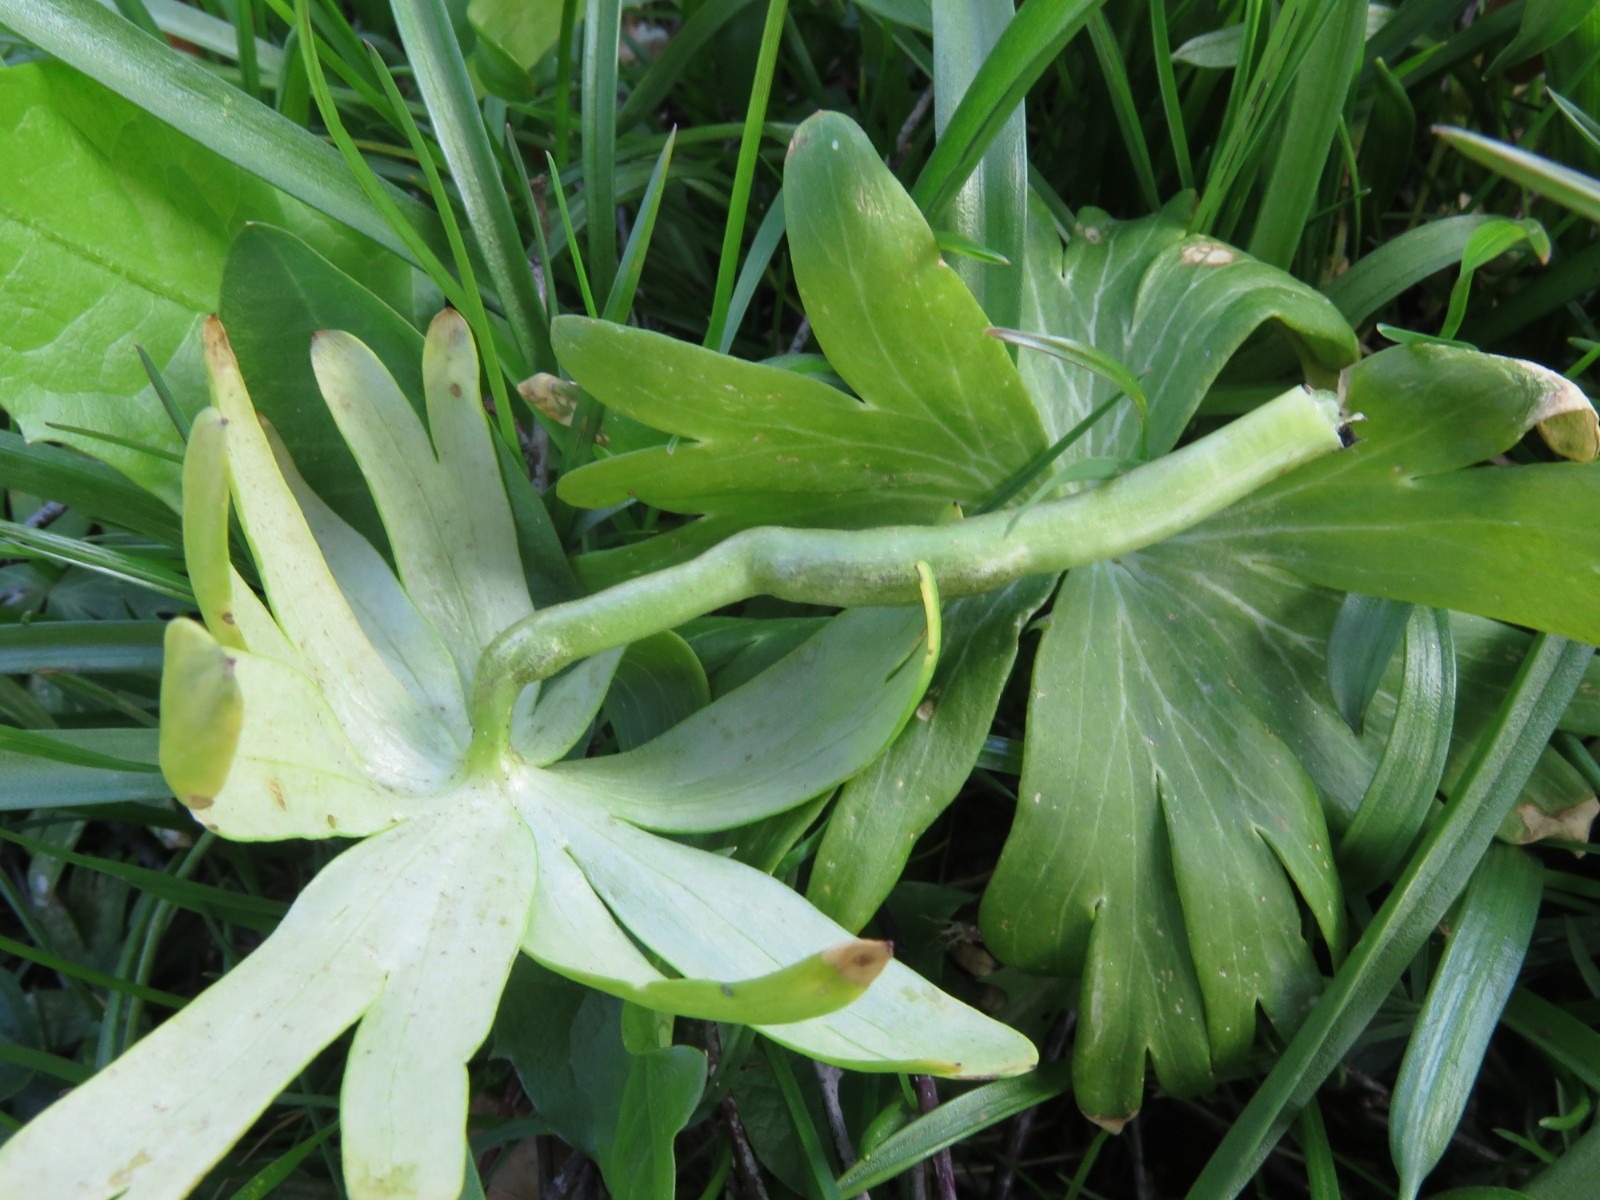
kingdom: Fungi
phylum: Basidiomycota
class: Ustilaginomycetes
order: Urocystidales
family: Urocystidaceae
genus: Urocystis
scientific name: Urocystis eranthidis
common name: erantis-brand
